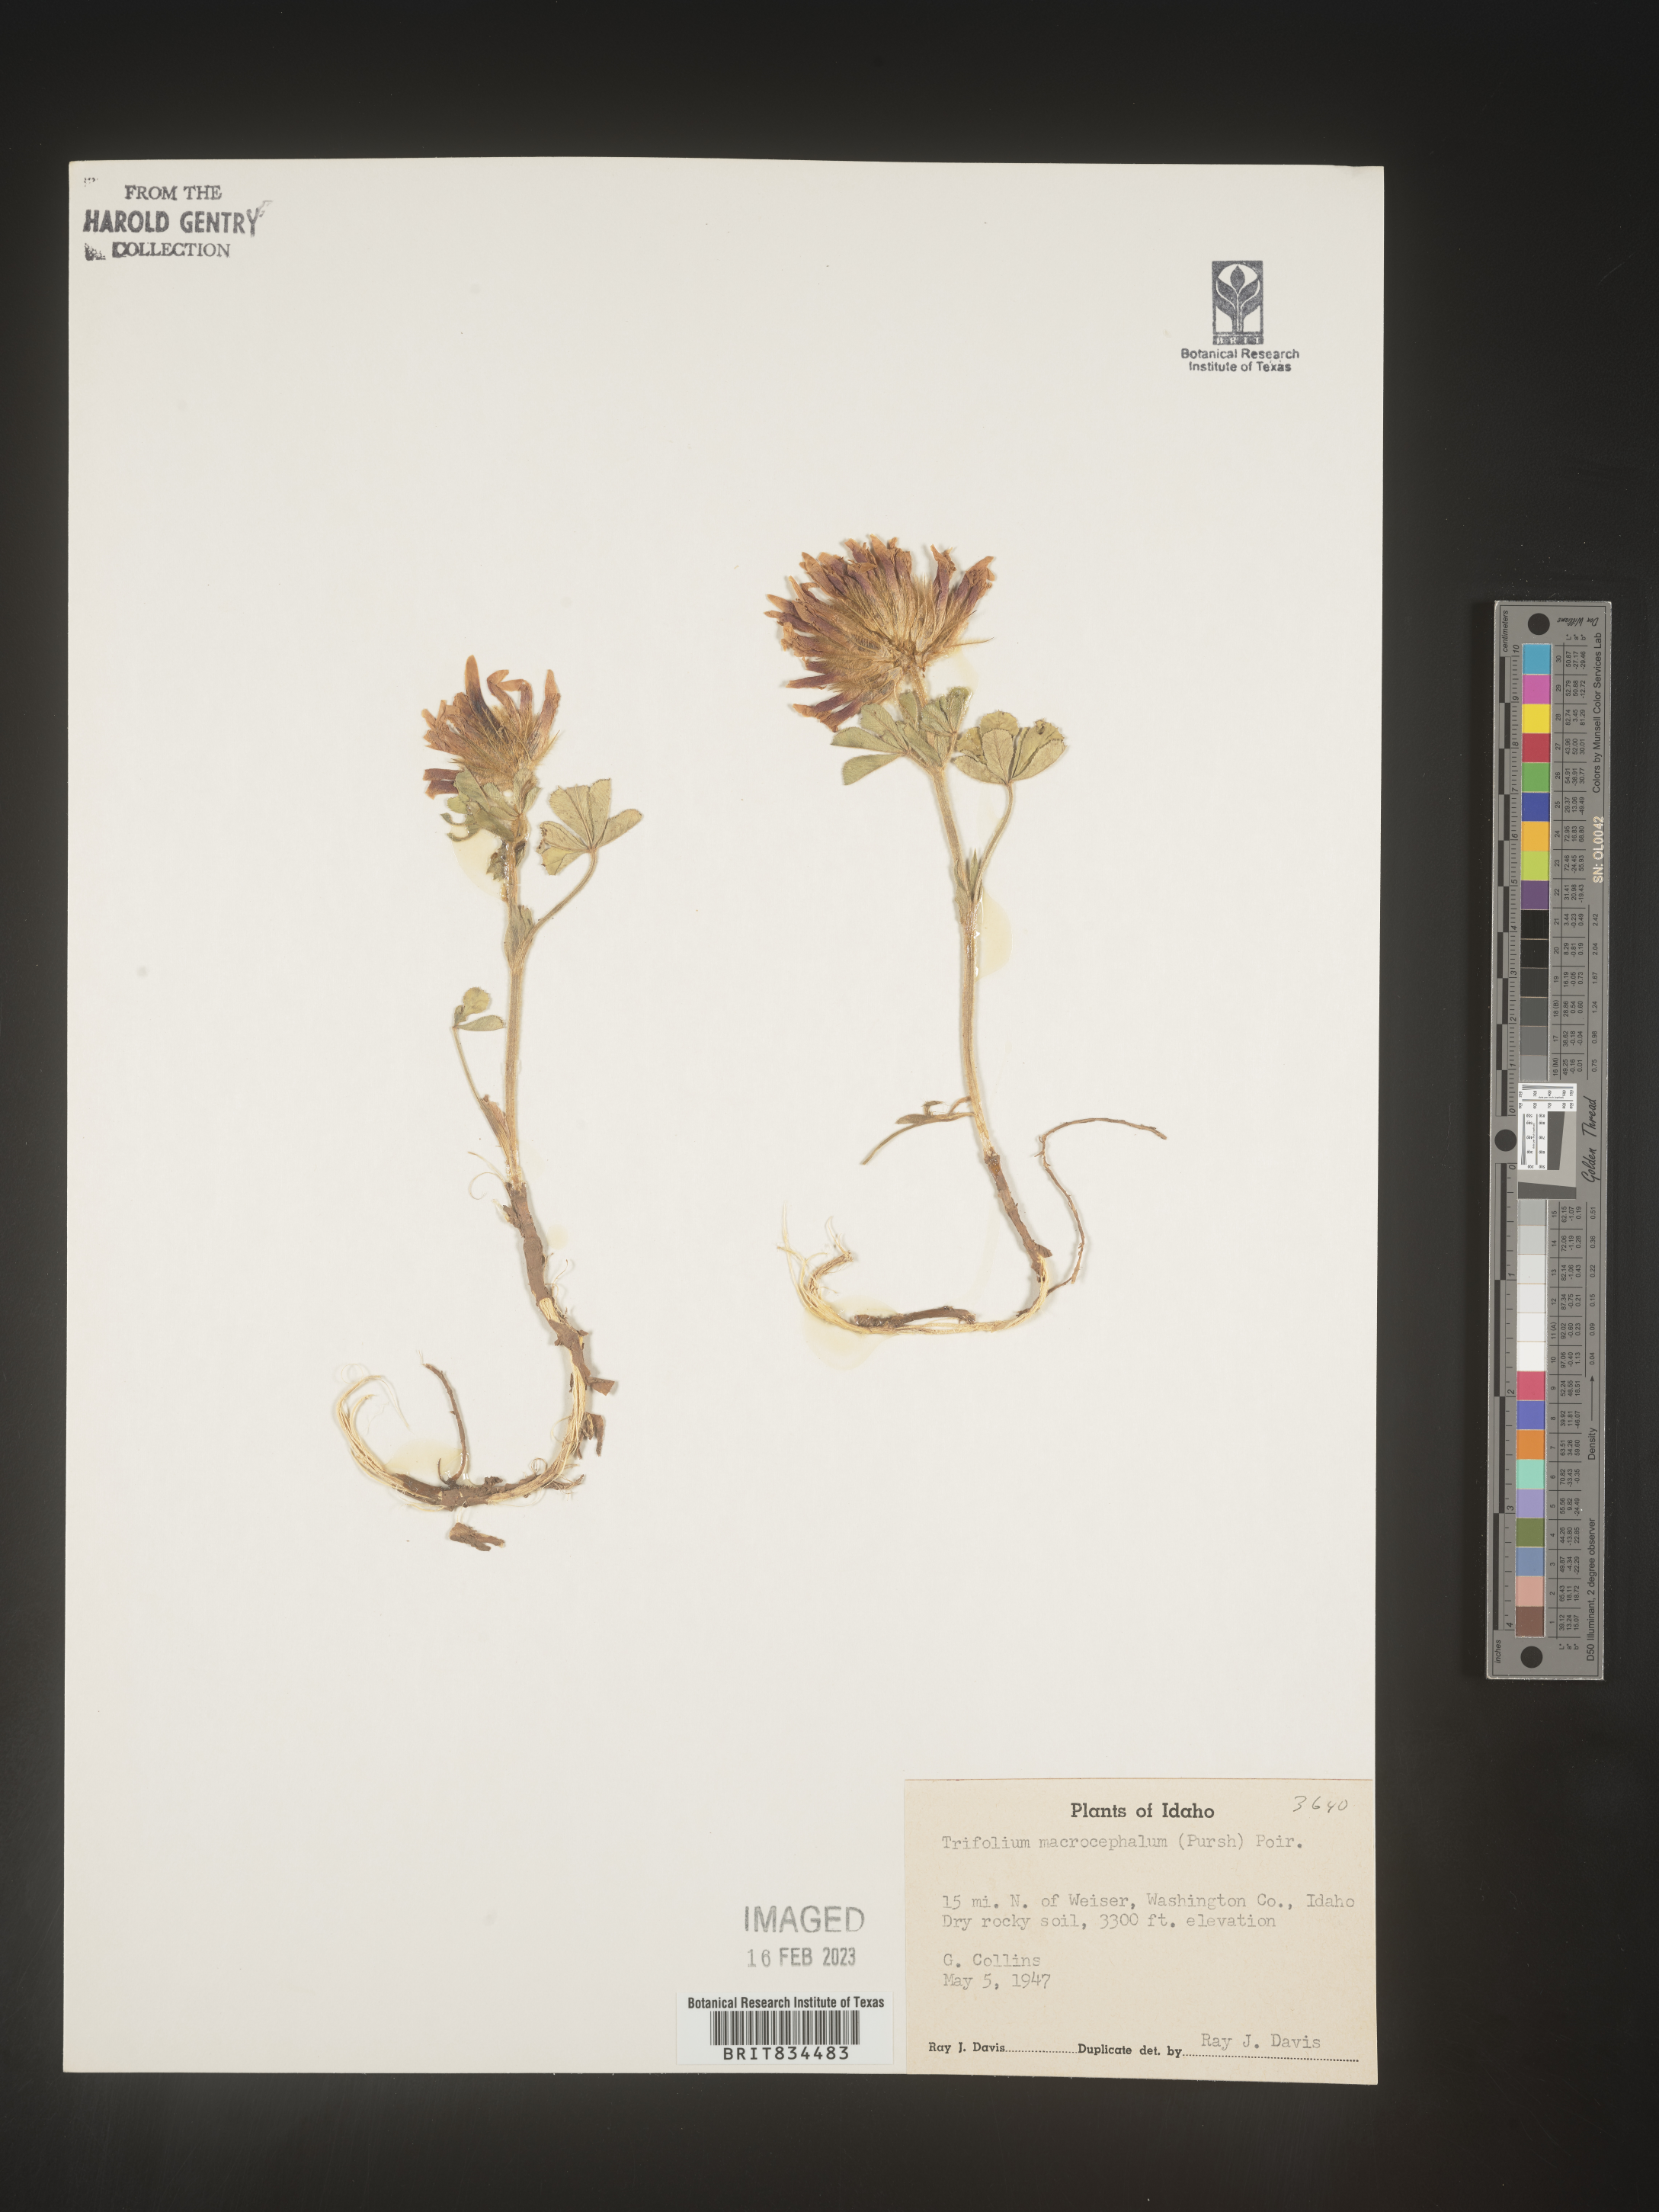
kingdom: Plantae
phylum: Tracheophyta
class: Magnoliopsida
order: Fabales
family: Fabaceae
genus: Trifolium
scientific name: Trifolium
